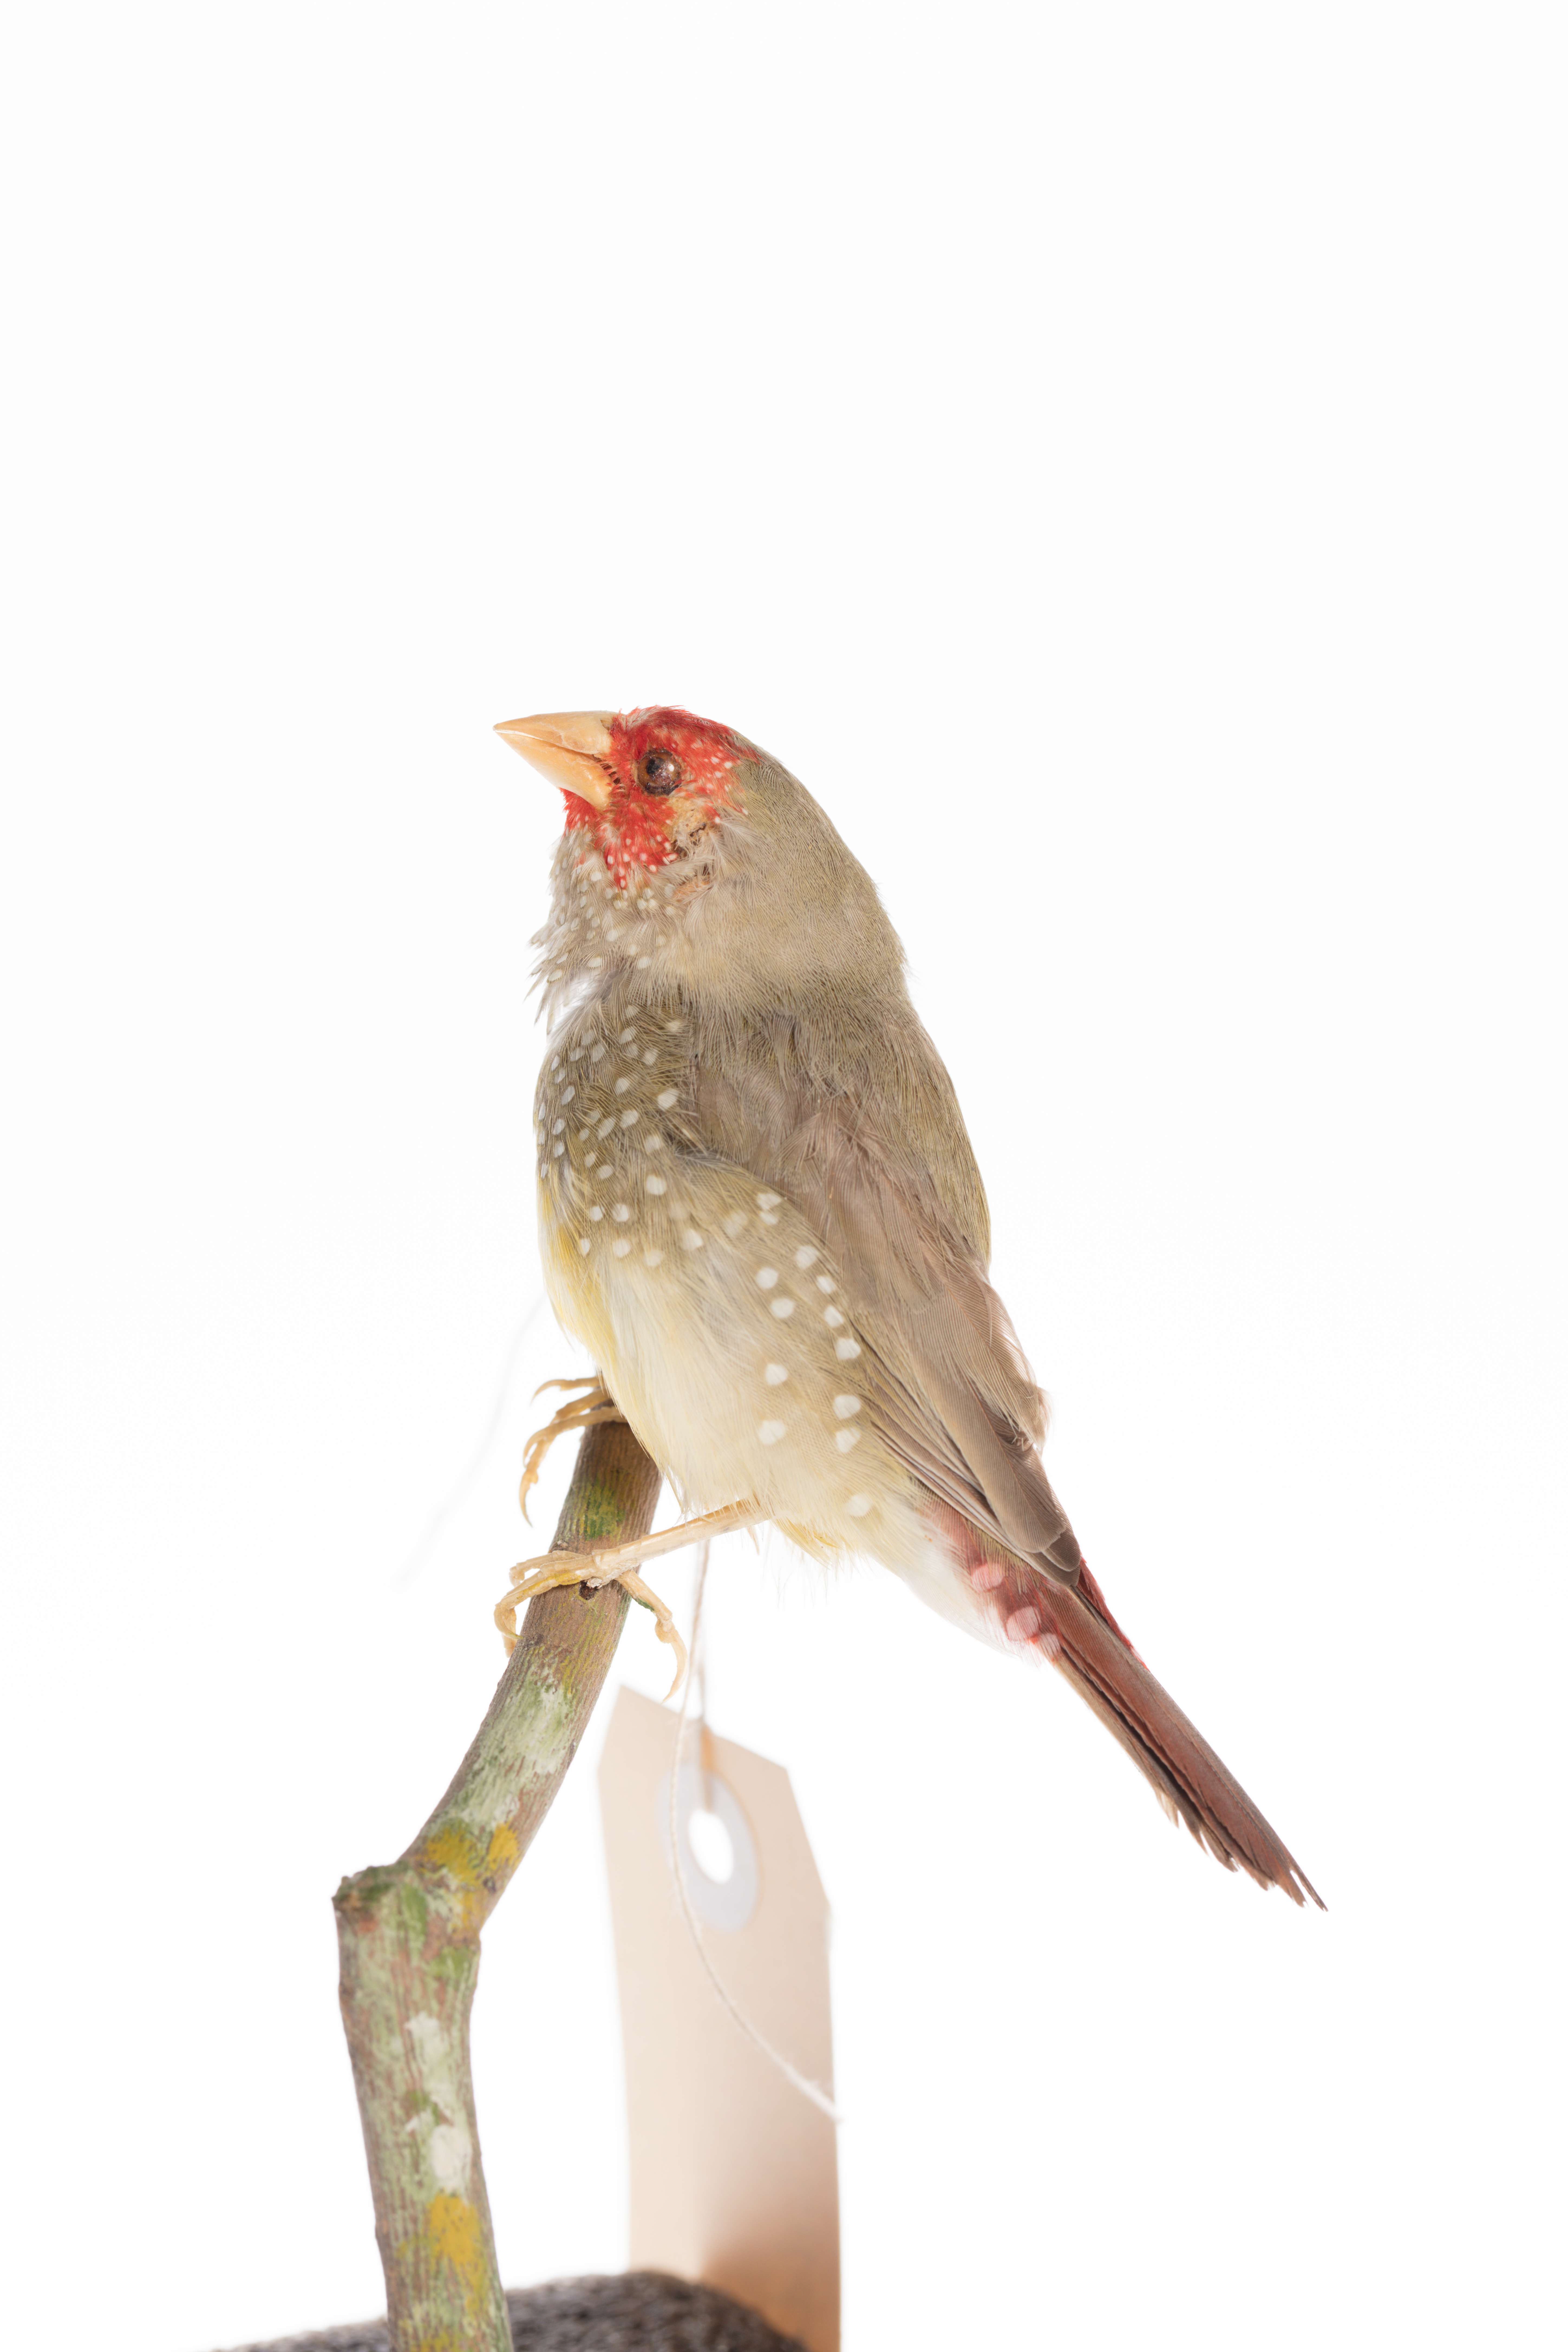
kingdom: Animalia
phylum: Chordata
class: Aves
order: Passeriformes
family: Estrildidae
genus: Neochmia
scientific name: Neochmia ruficauda
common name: Star finch
